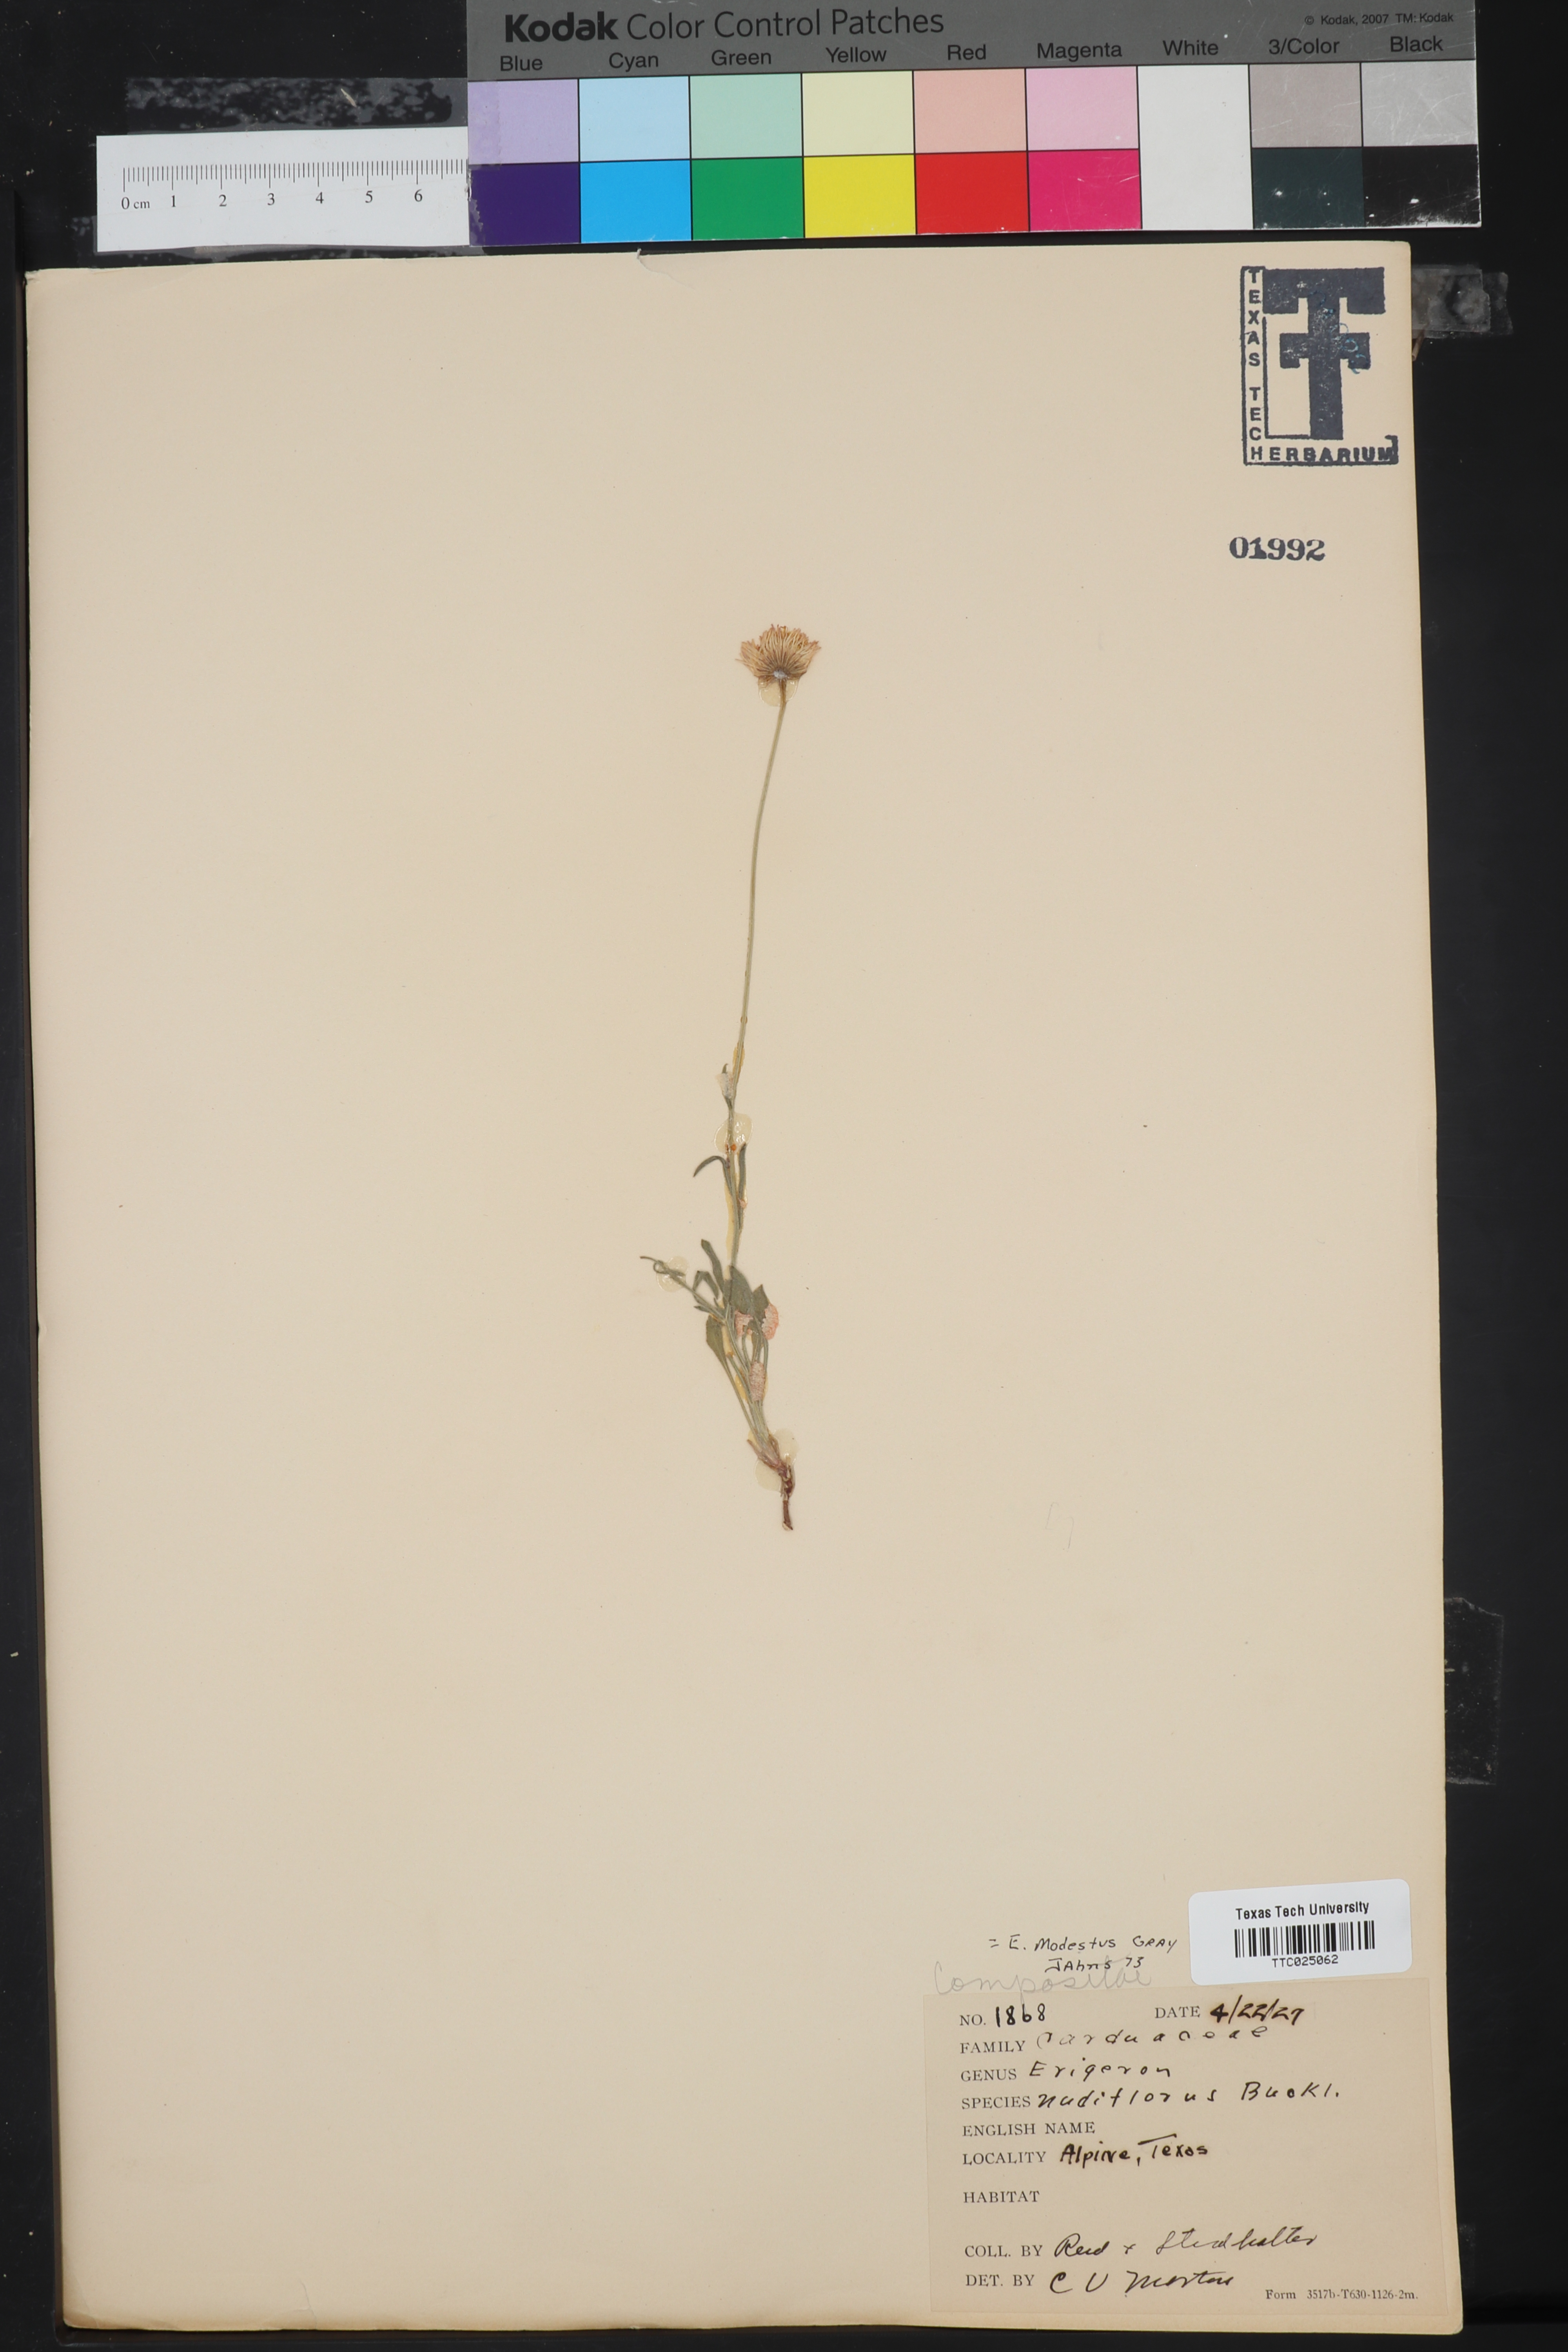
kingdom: Plantae
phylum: Tracheophyta
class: Magnoliopsida
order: Asterales
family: Asteraceae
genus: Erigeron
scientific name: Erigeron flagellaris
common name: Running fleabane
